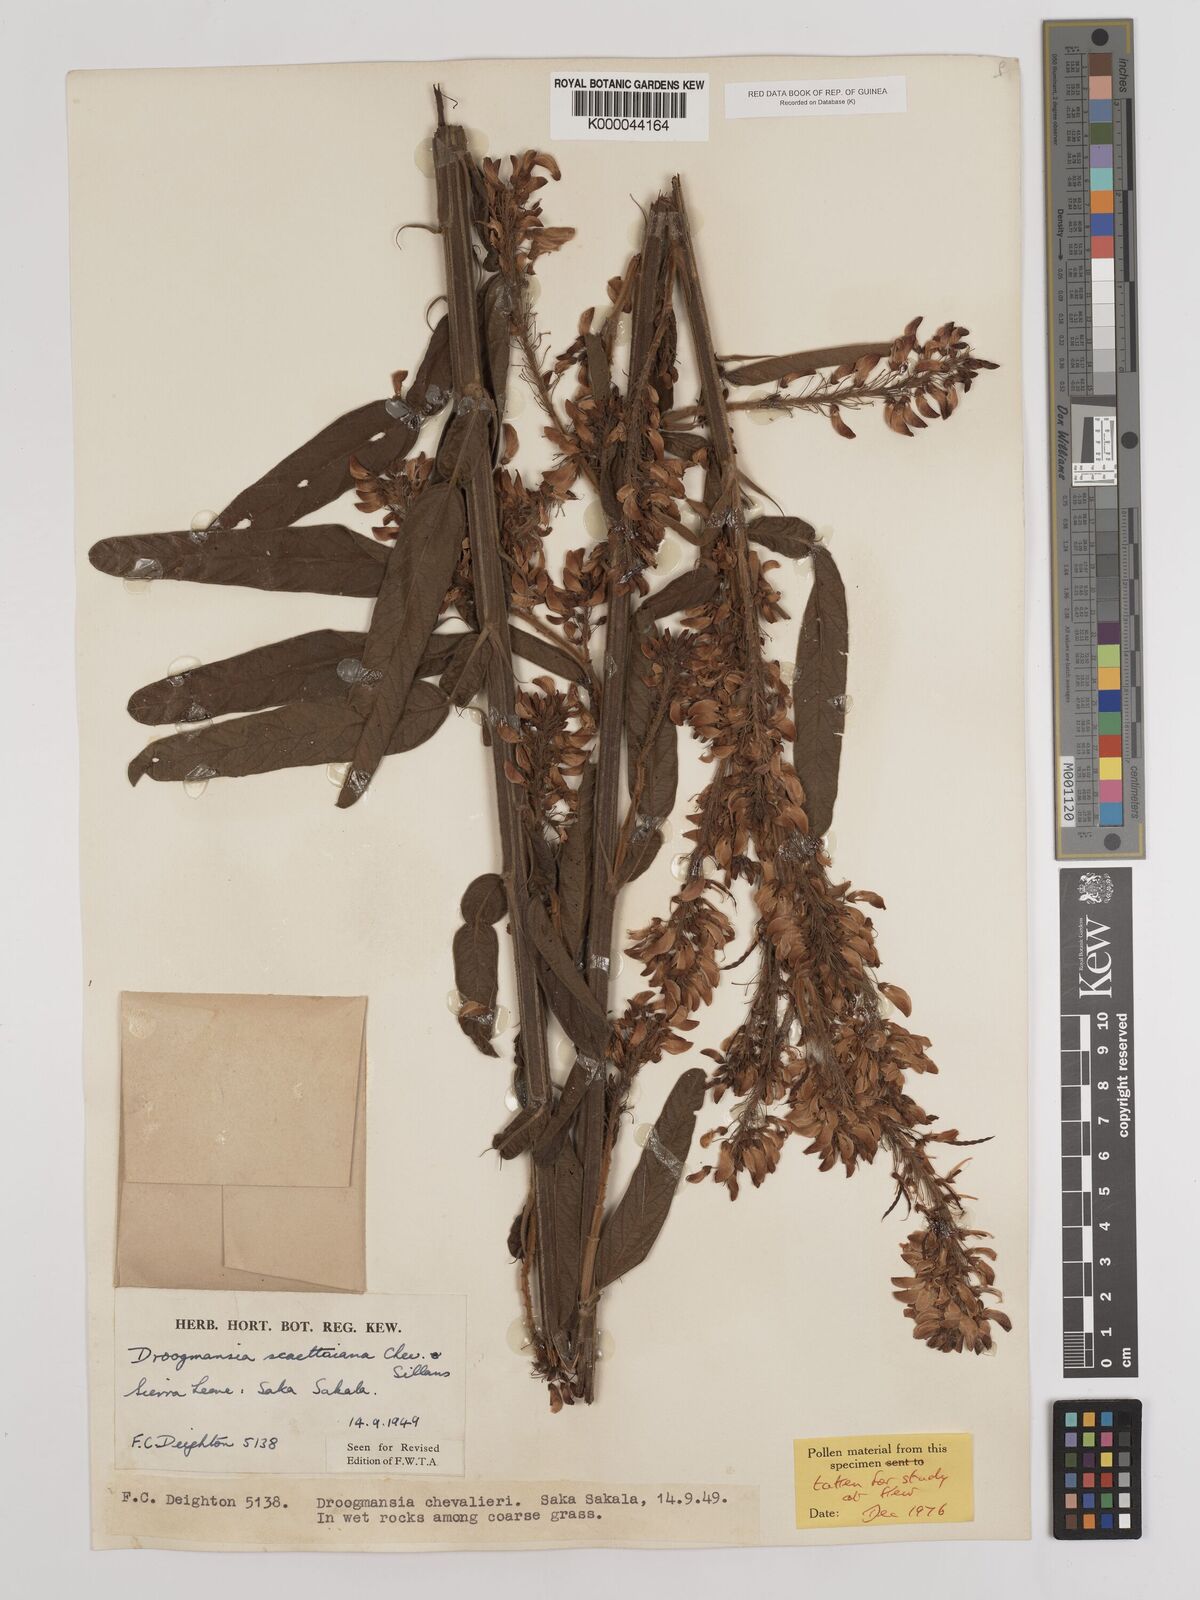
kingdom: Plantae
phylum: Tracheophyta
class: Magnoliopsida
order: Fabales
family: Fabaceae
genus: Droogmansia
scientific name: Droogmansia scaettaiana
